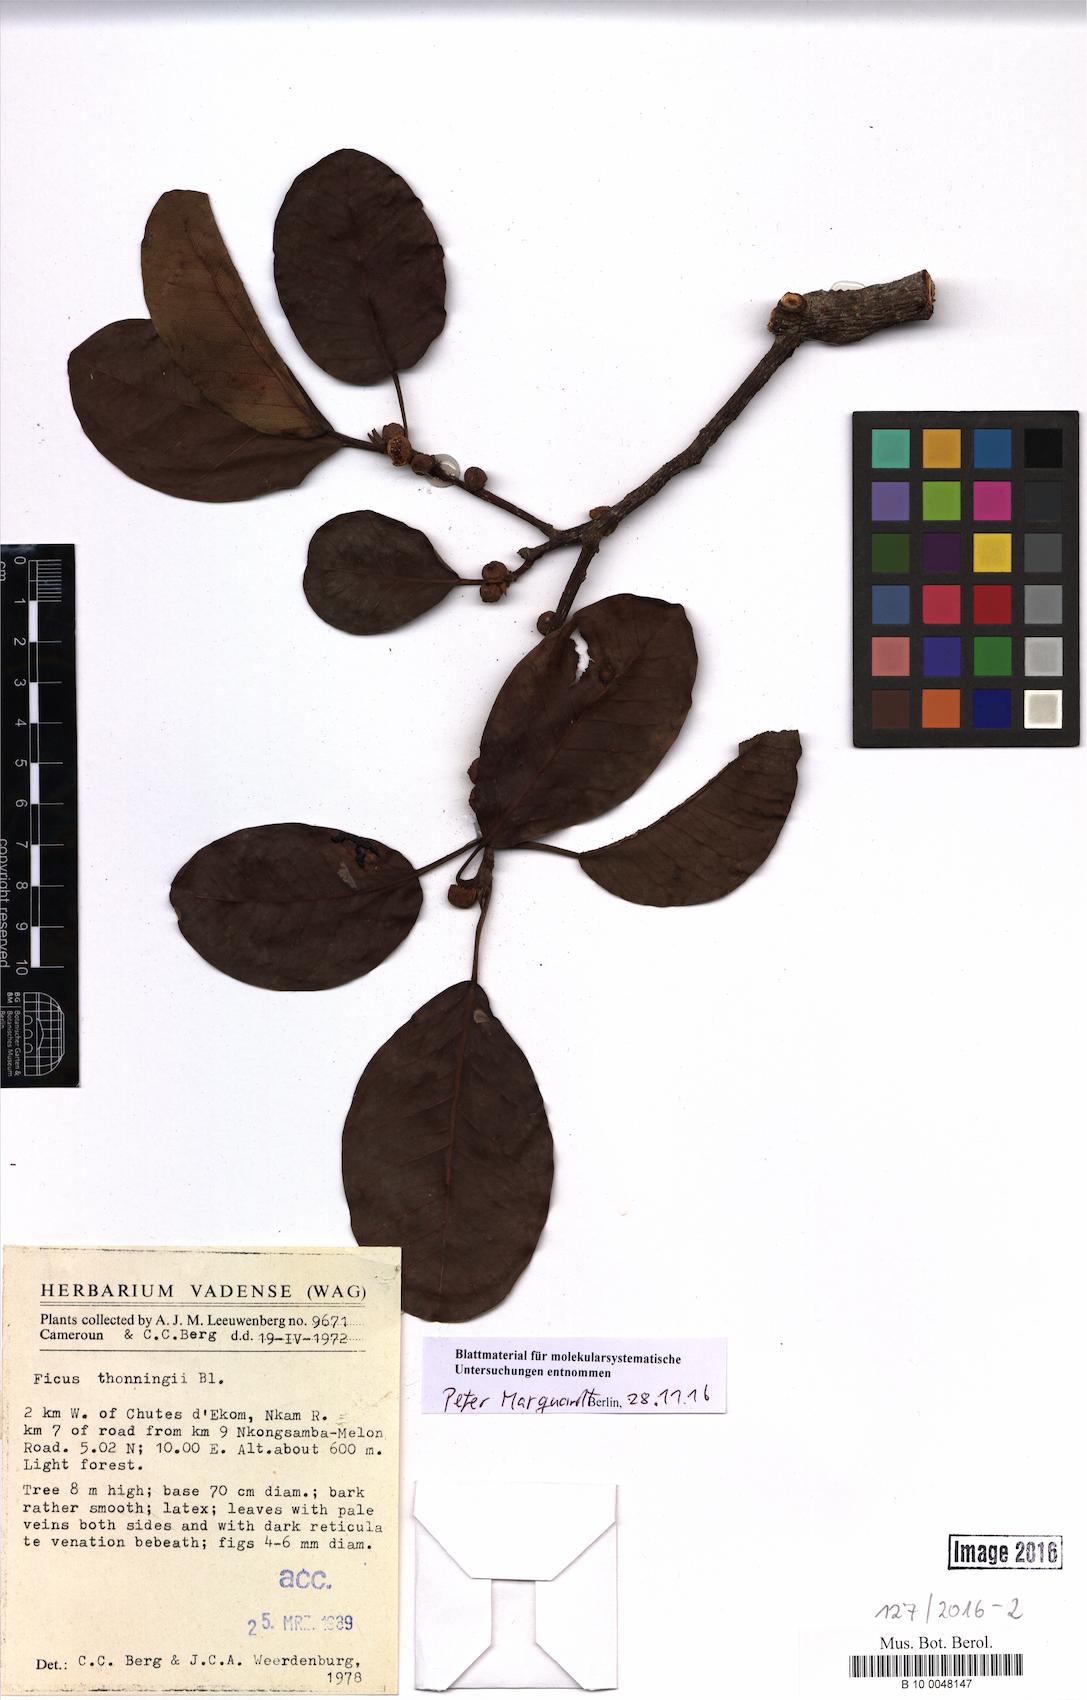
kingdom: Plantae
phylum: Tracheophyta
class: Magnoliopsida
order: Rosales
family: Moraceae
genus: Ficus
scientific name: Ficus thonningii
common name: Fig
